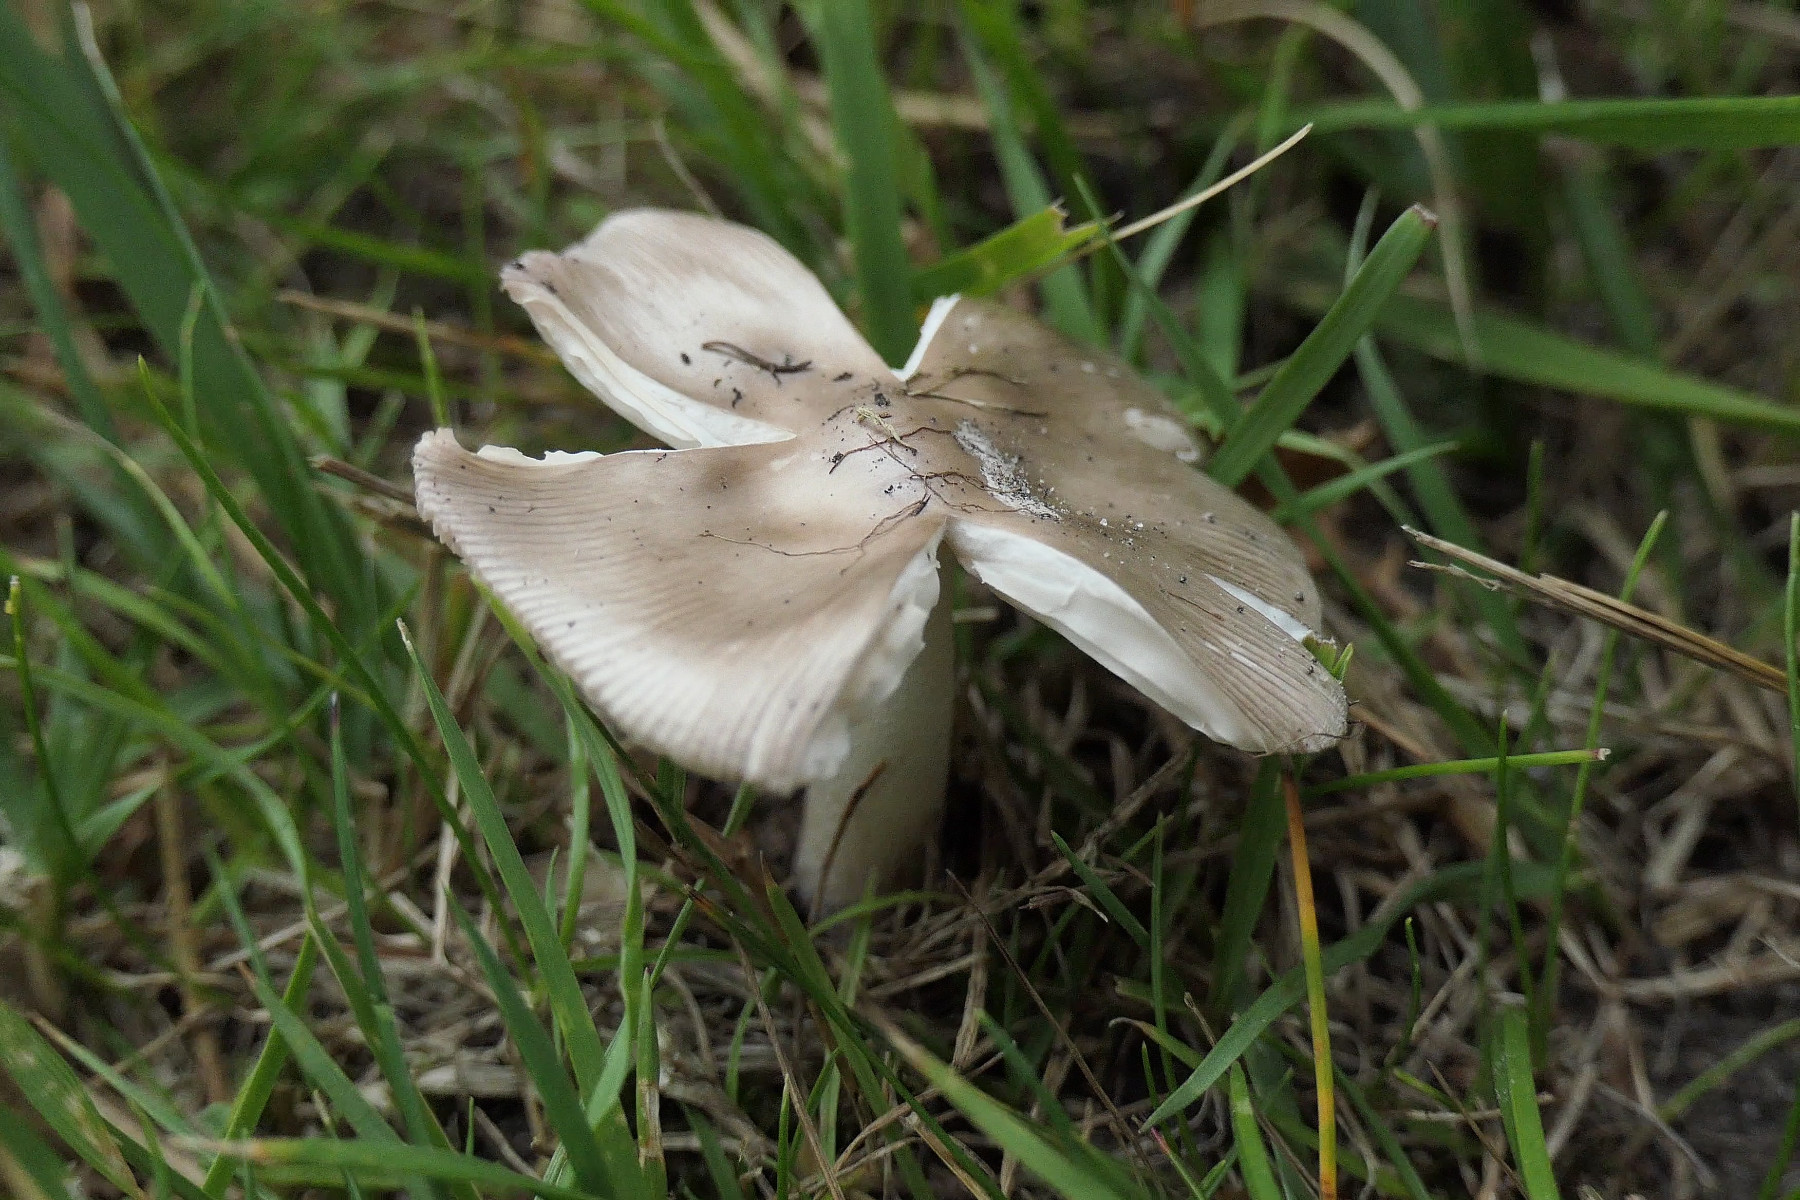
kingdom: Fungi
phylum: Basidiomycota
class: Agaricomycetes
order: Agaricales
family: Amanitaceae
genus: Amanita
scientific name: Amanita vaginata
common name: grå kam-fluesvamp
